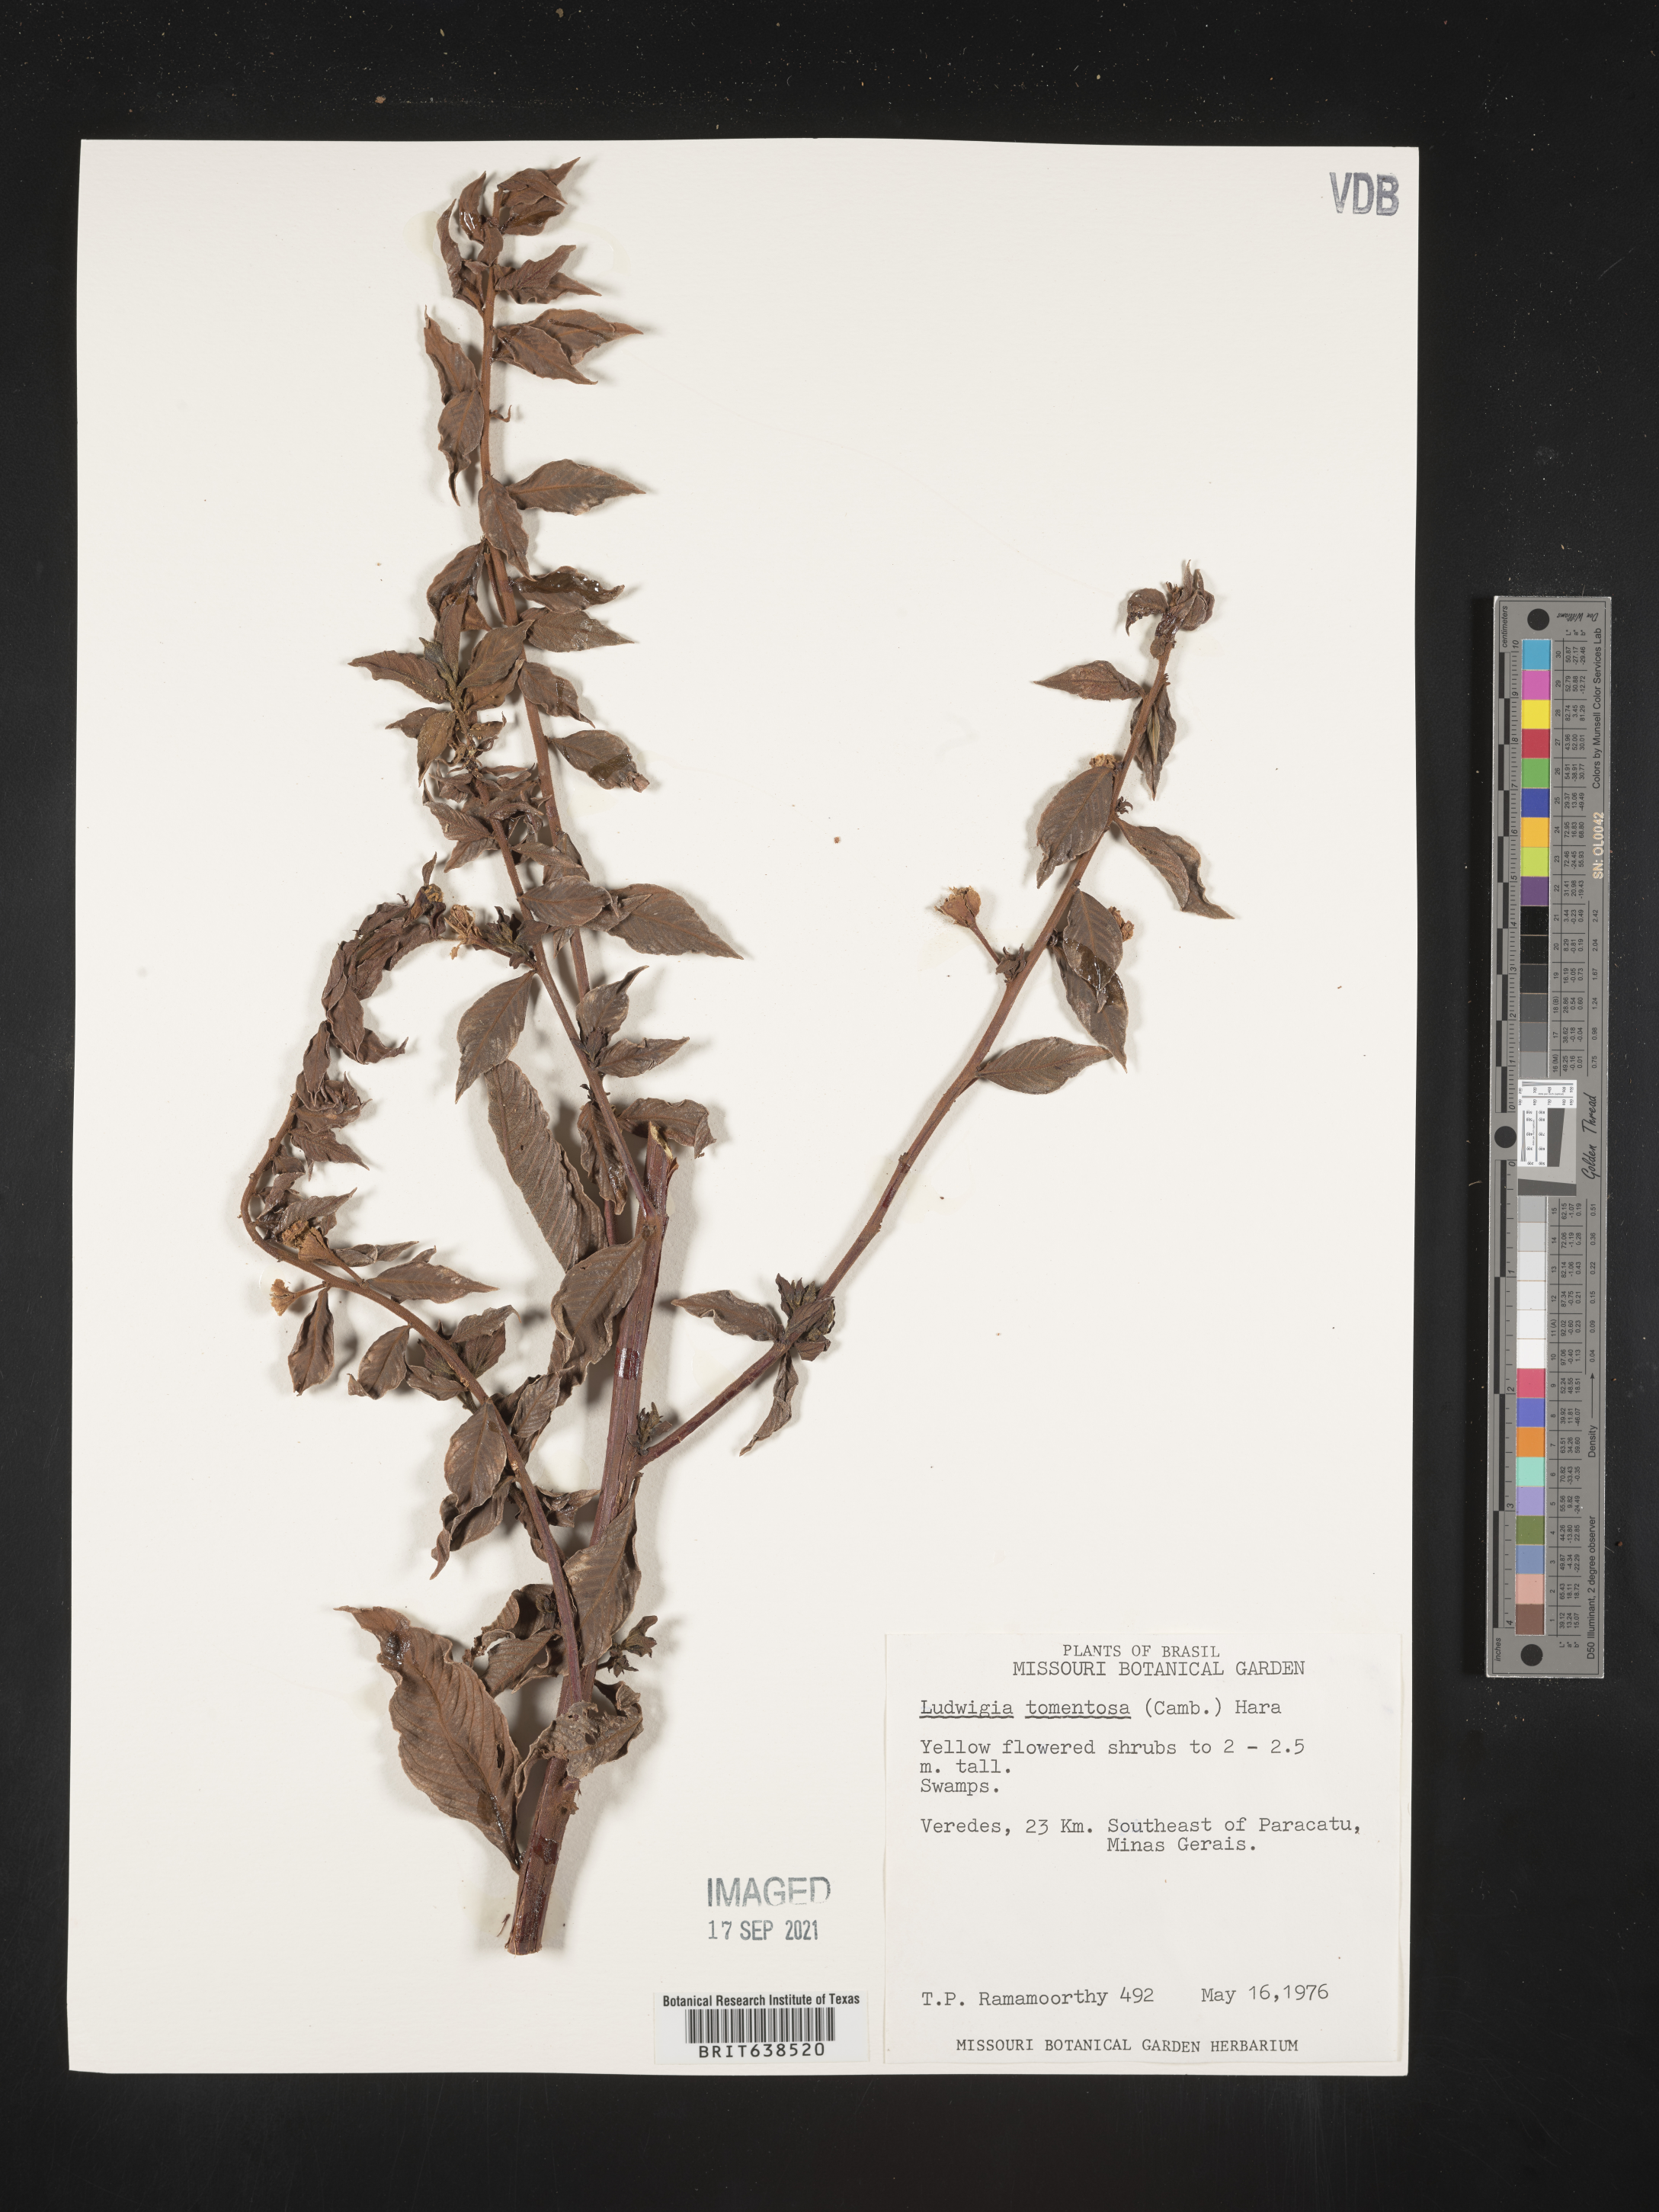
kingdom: Plantae
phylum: Tracheophyta
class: Magnoliopsida
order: Myrtales
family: Onagraceae
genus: Ludwigia
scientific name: Ludwigia
